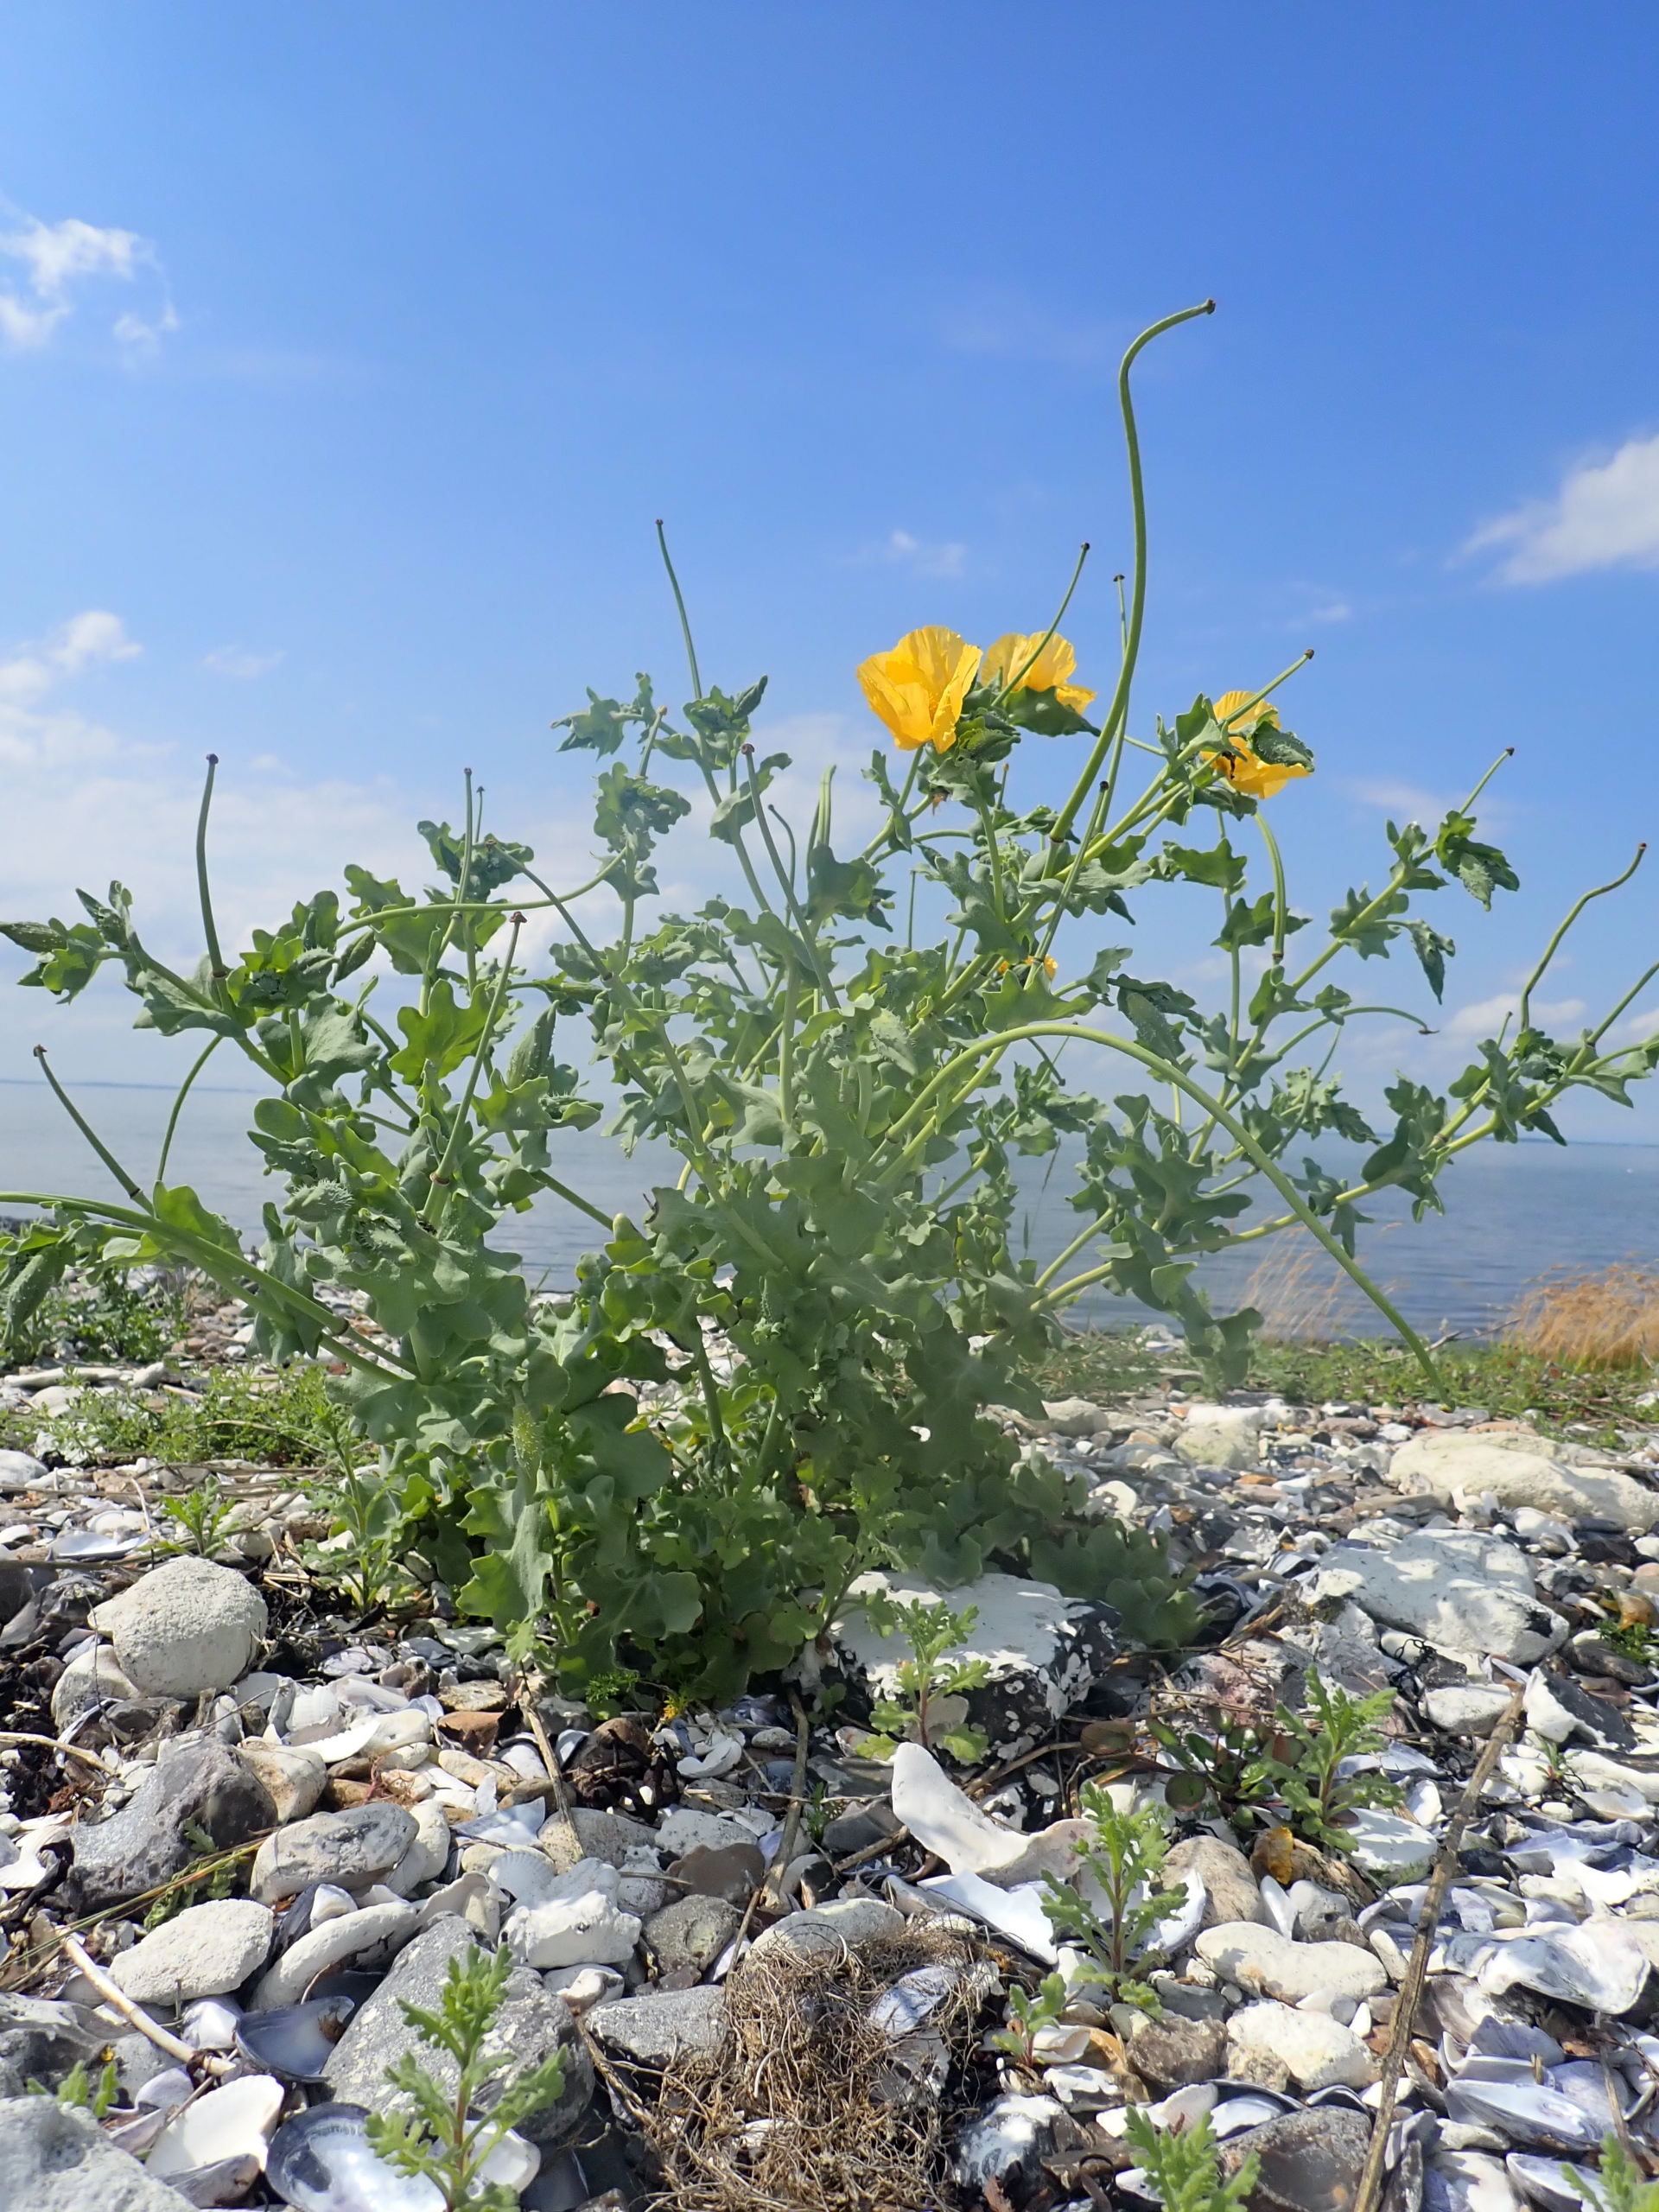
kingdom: Plantae
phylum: Tracheophyta
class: Magnoliopsida
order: Ranunculales
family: Papaveraceae
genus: Glaucium
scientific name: Glaucium flavum
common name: Hornskulpe
